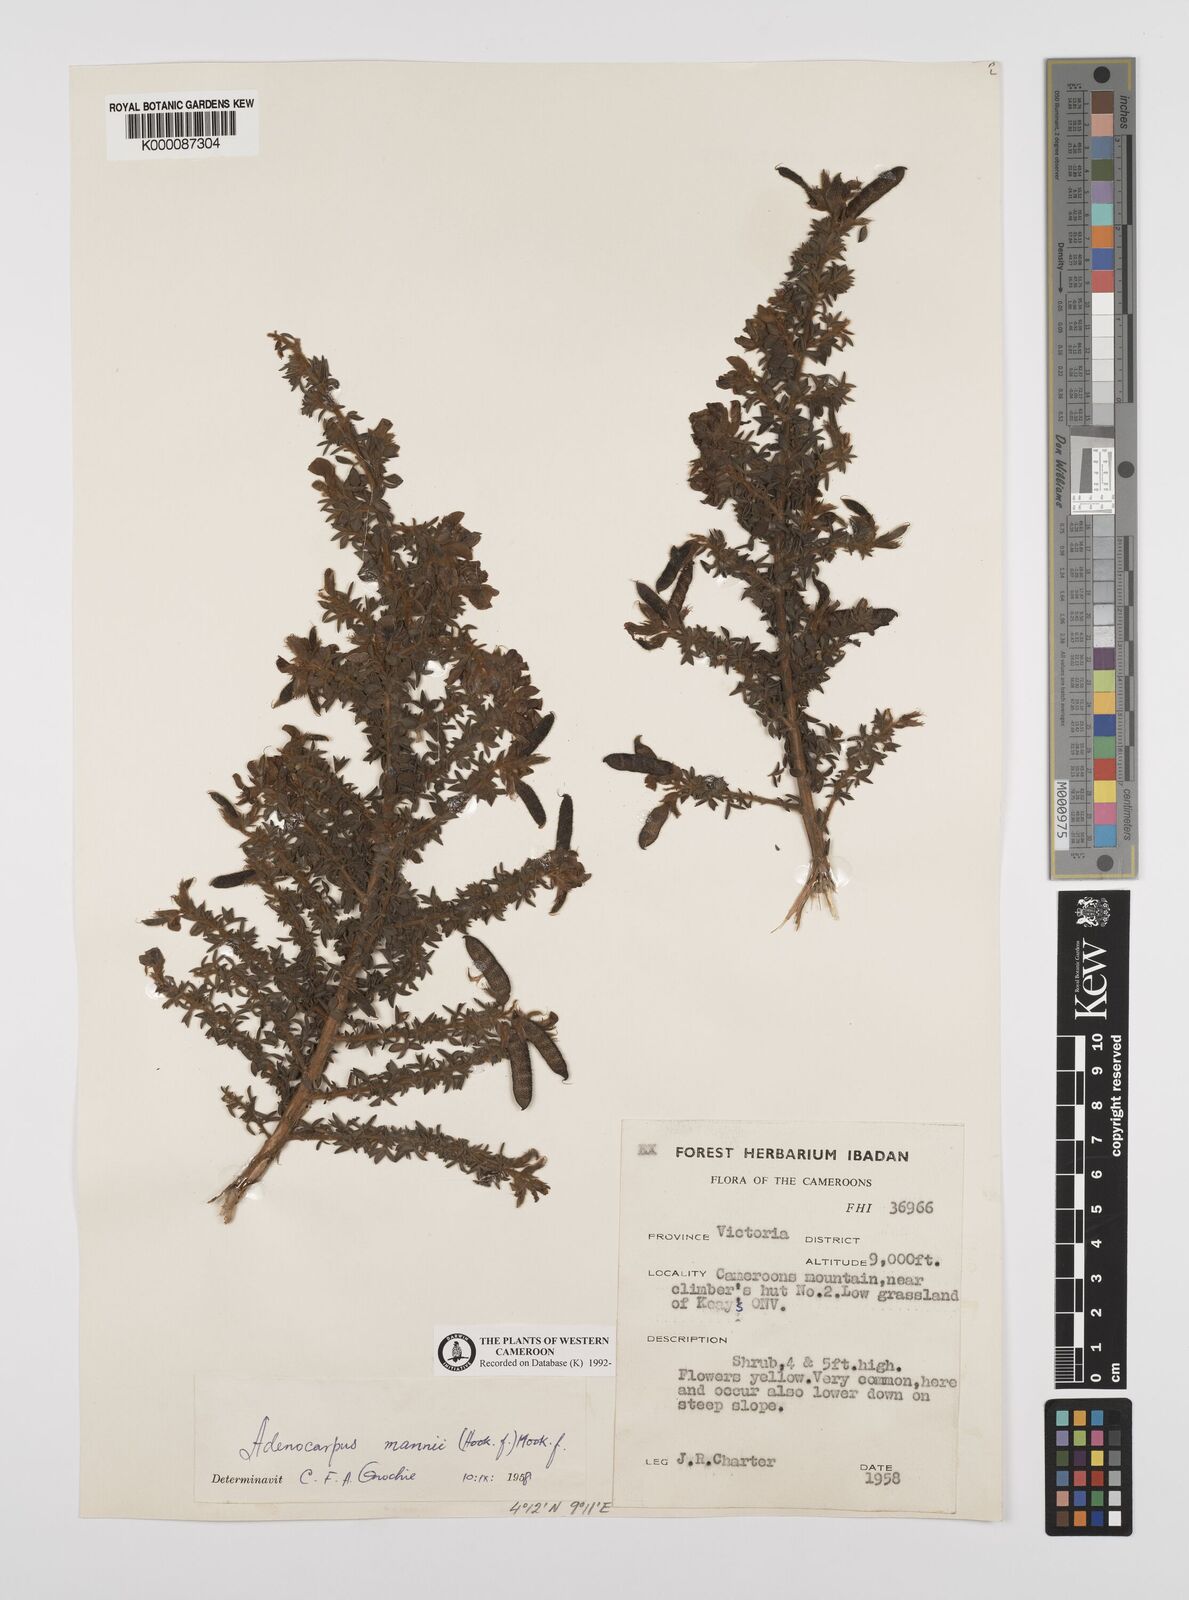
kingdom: Plantae
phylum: Tracheophyta
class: Magnoliopsida
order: Fabales
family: Fabaceae
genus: Adenocarpus
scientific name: Adenocarpus mannii
